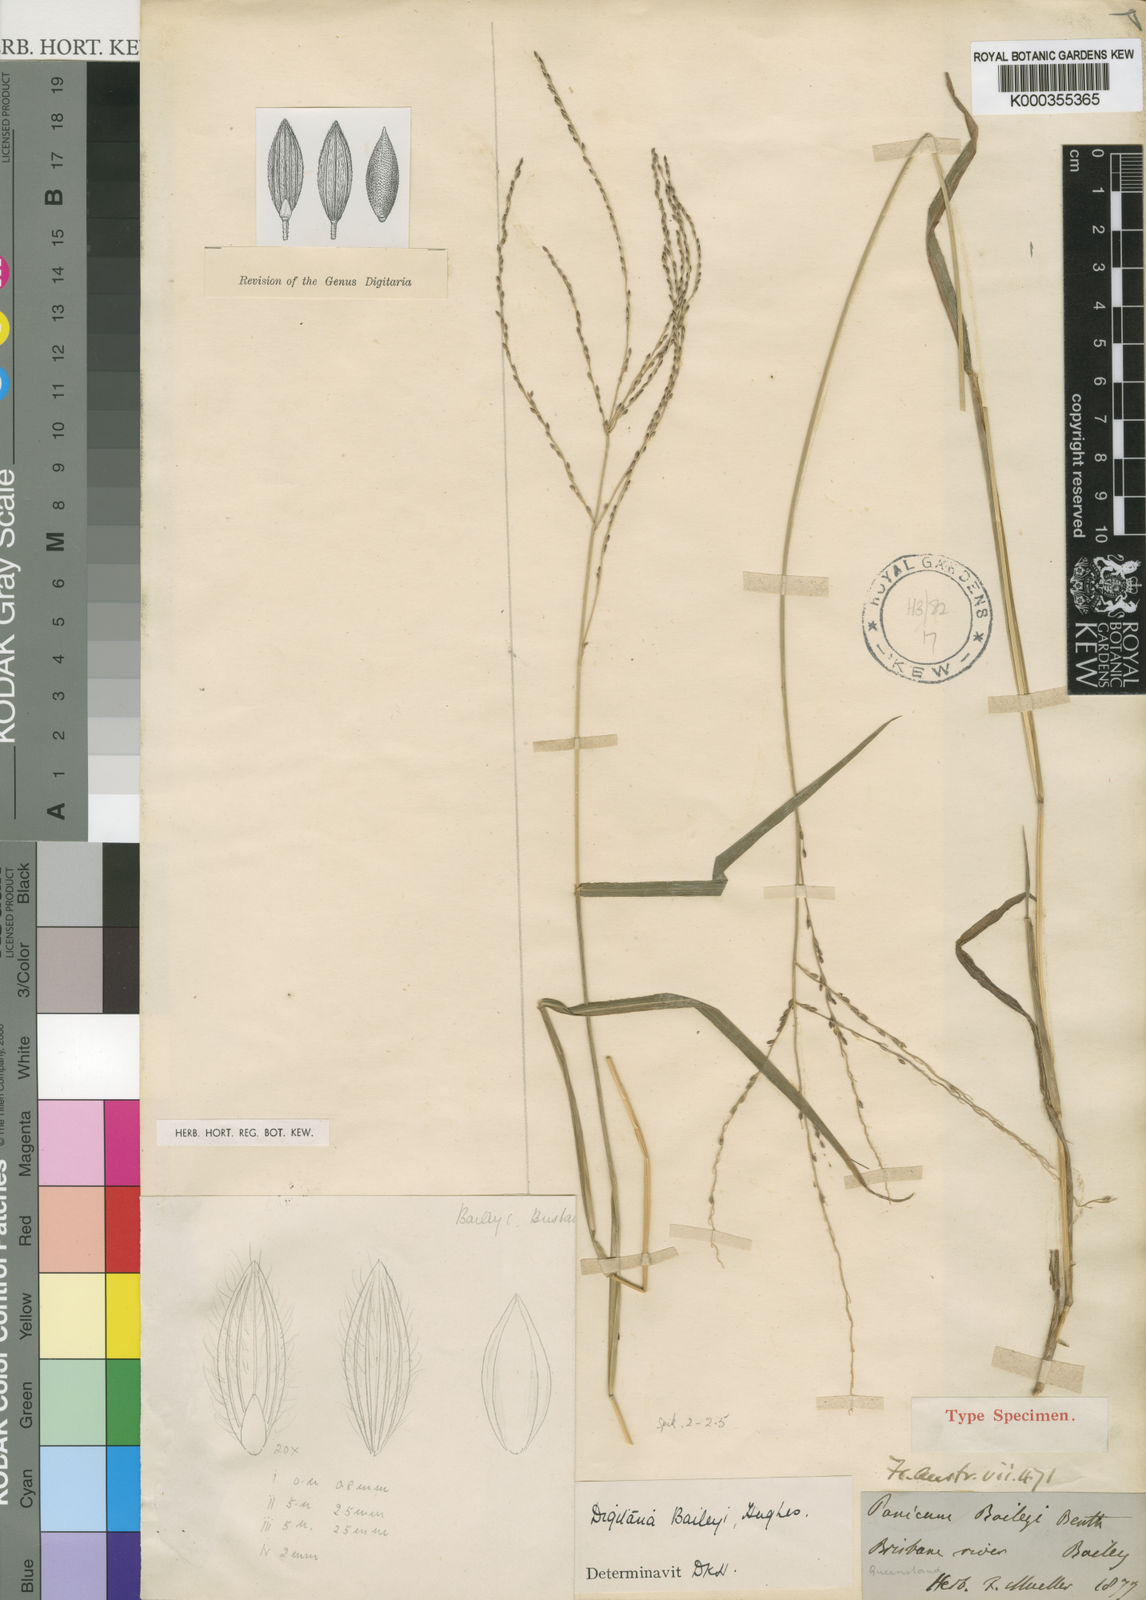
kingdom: Plantae
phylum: Tracheophyta
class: Liliopsida
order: Poales
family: Poaceae
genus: Digitaria
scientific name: Digitaria baileyi
